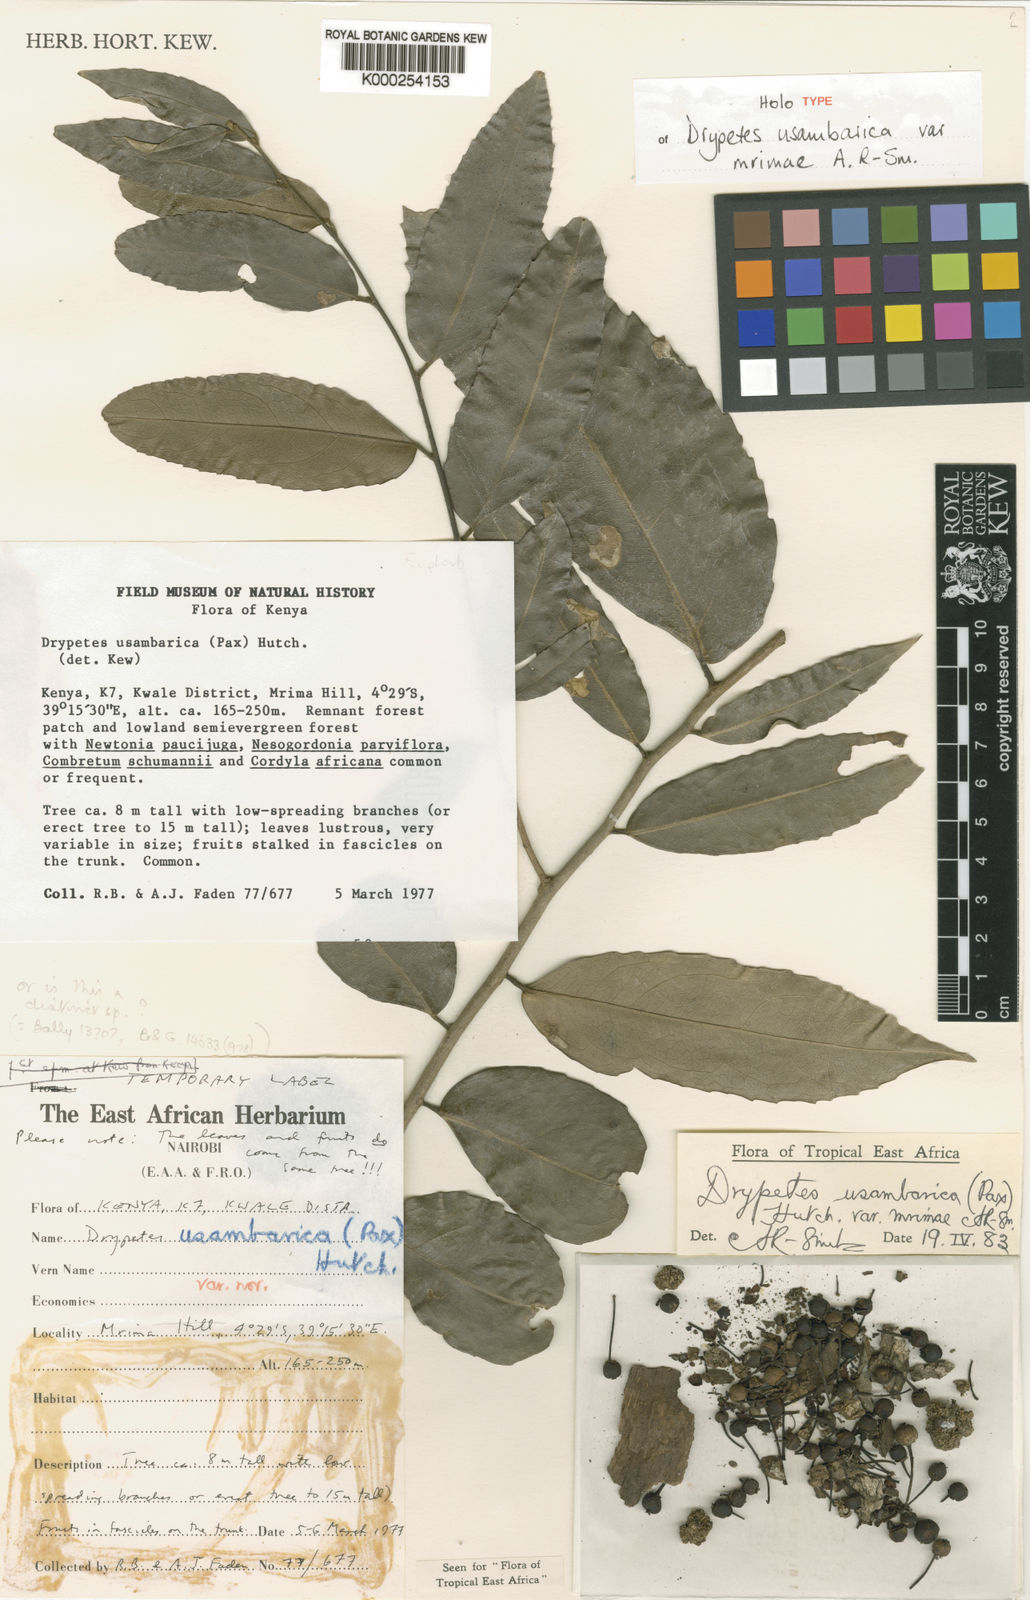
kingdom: Plantae
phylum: Tracheophyta
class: Magnoliopsida
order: Malpighiales
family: Putranjivaceae
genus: Drypetes
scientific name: Drypetes usambarica
